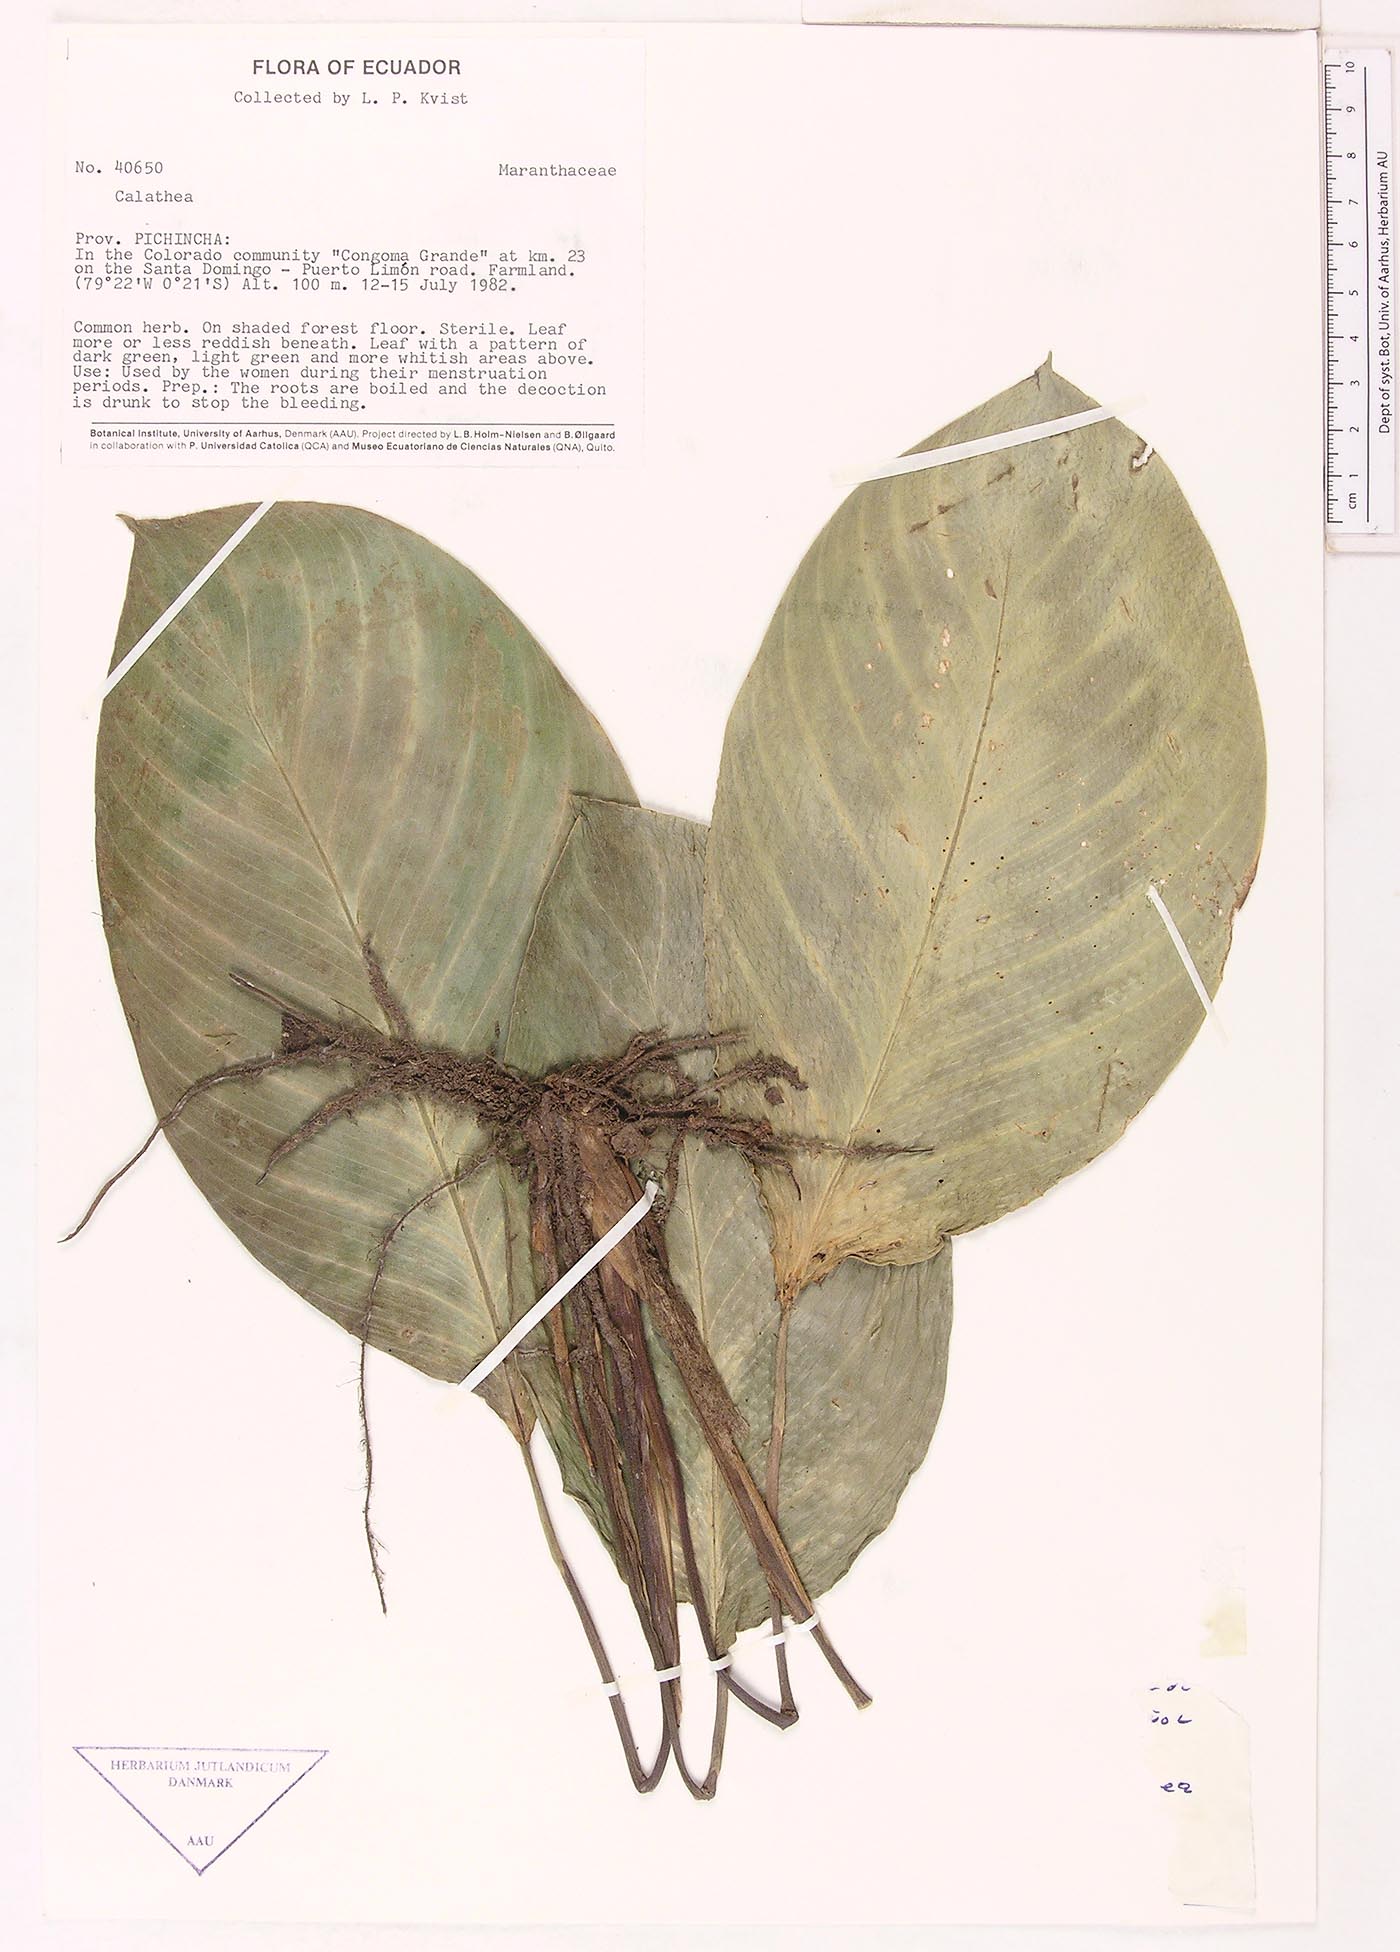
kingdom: Plantae
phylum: Tracheophyta
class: Liliopsida
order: Zingiberales
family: Marantaceae
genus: Goeppertia
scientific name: Goeppertia metallica
